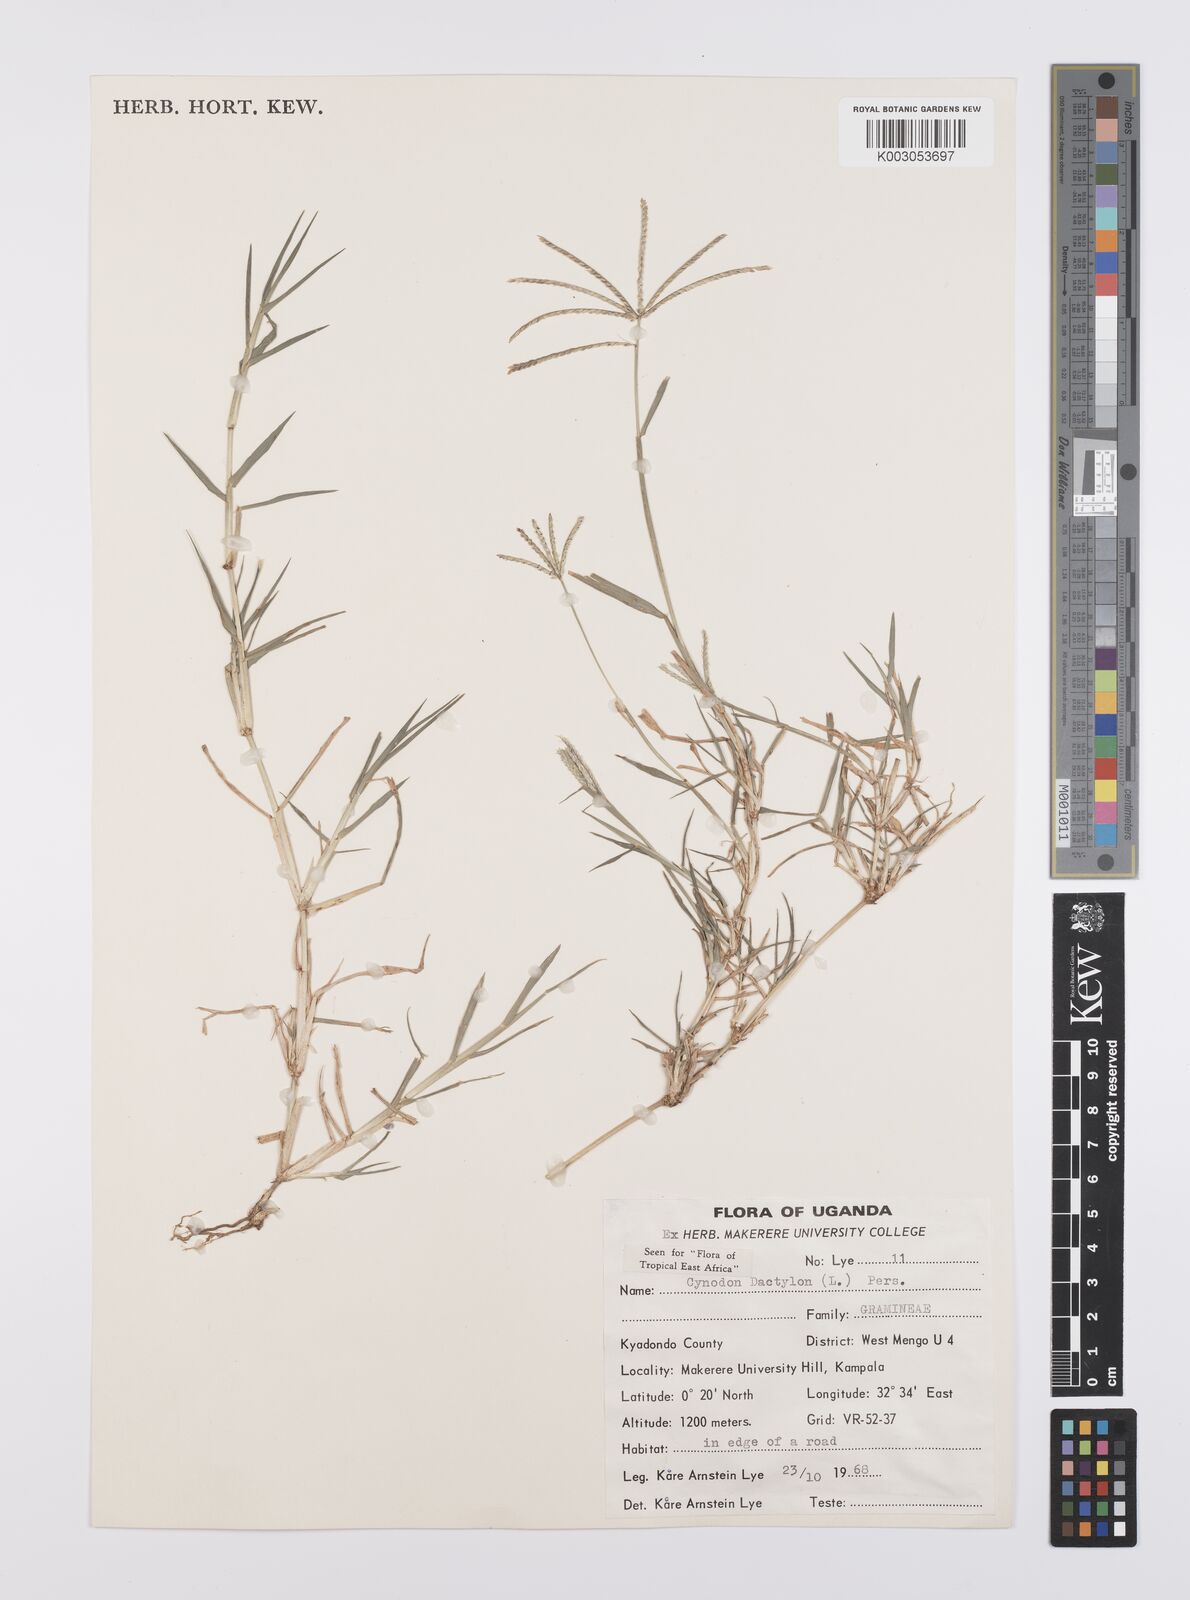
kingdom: Plantae
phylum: Tracheophyta
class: Liliopsida
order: Poales
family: Poaceae
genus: Cynodon
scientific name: Cynodon dactylon
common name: Bermuda grass
